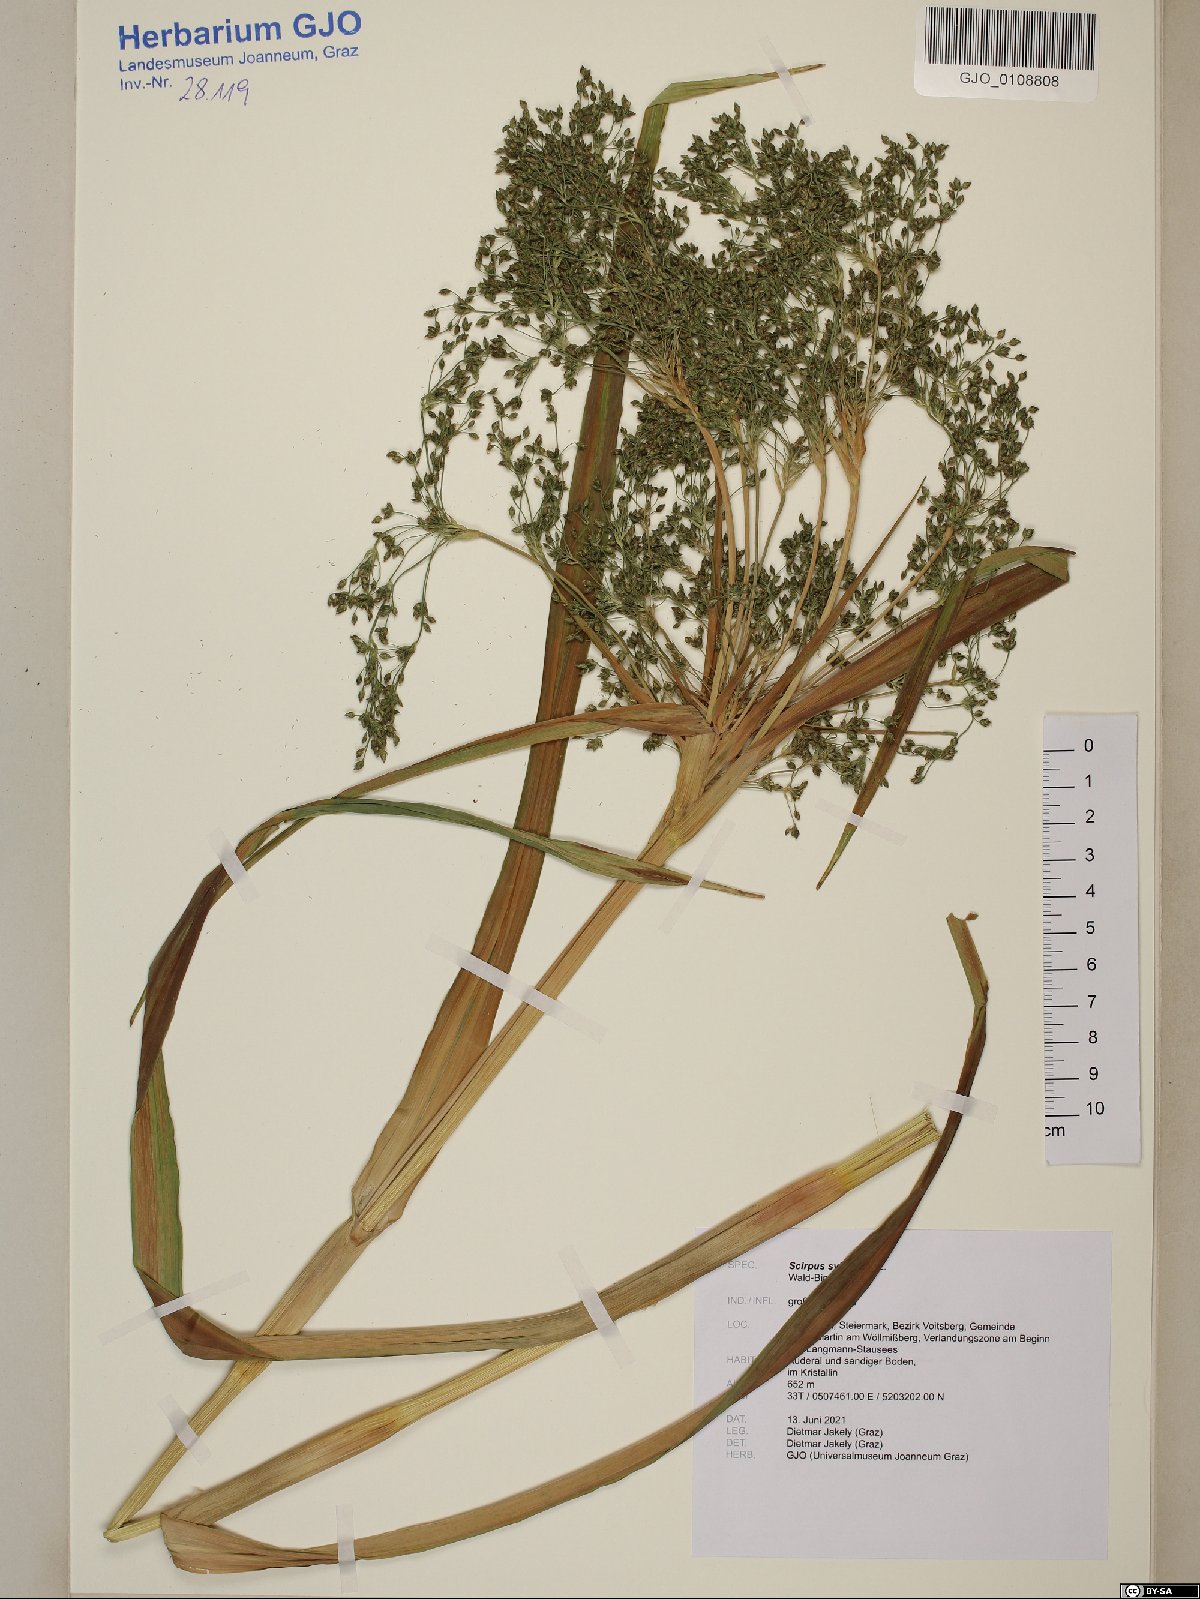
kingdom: Plantae
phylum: Tracheophyta
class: Liliopsida
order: Poales
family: Cyperaceae
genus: Scirpus
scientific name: Scirpus sylvaticus
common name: Wood club-rush
